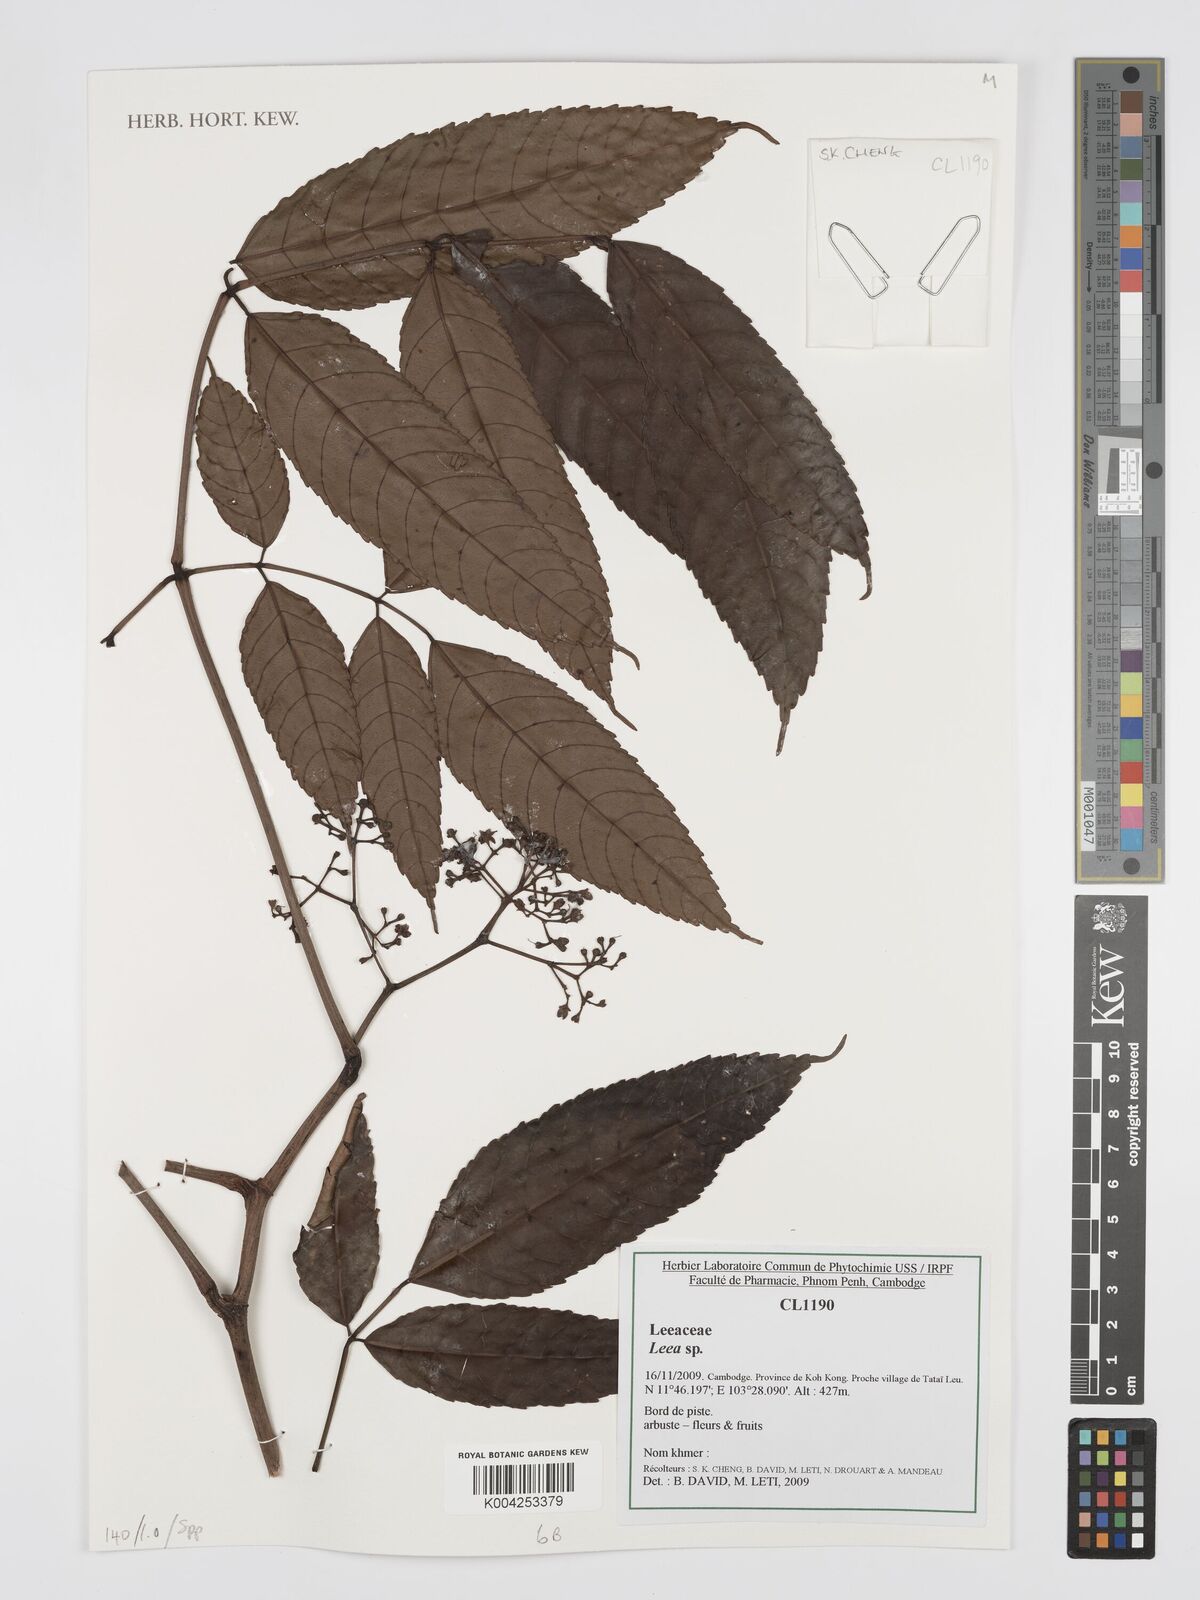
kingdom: Plantae
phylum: Tracheophyta
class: Magnoliopsida
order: Vitales
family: Vitaceae
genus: Leea
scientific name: Leea
